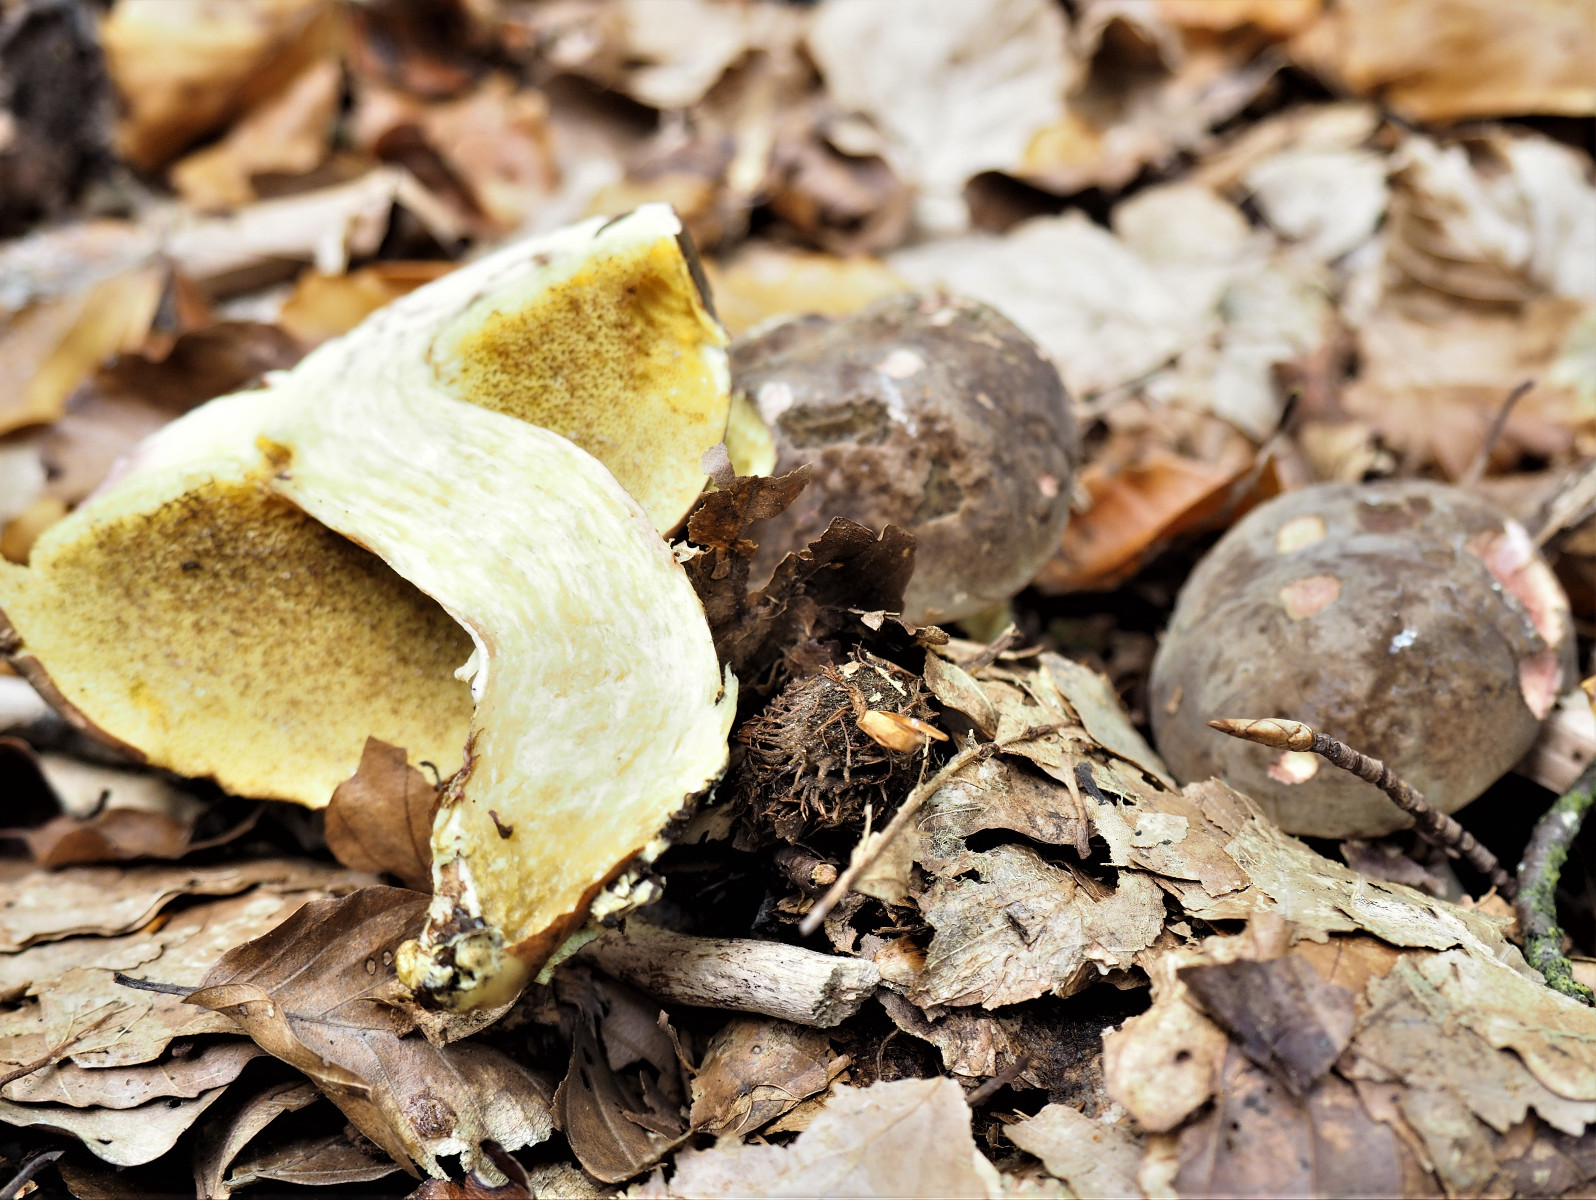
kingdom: Fungi
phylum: Basidiomycota
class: Agaricomycetes
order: Boletales
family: Boletaceae
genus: Xerocomellus
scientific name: Xerocomellus pruinatus
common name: dugget rørhat
